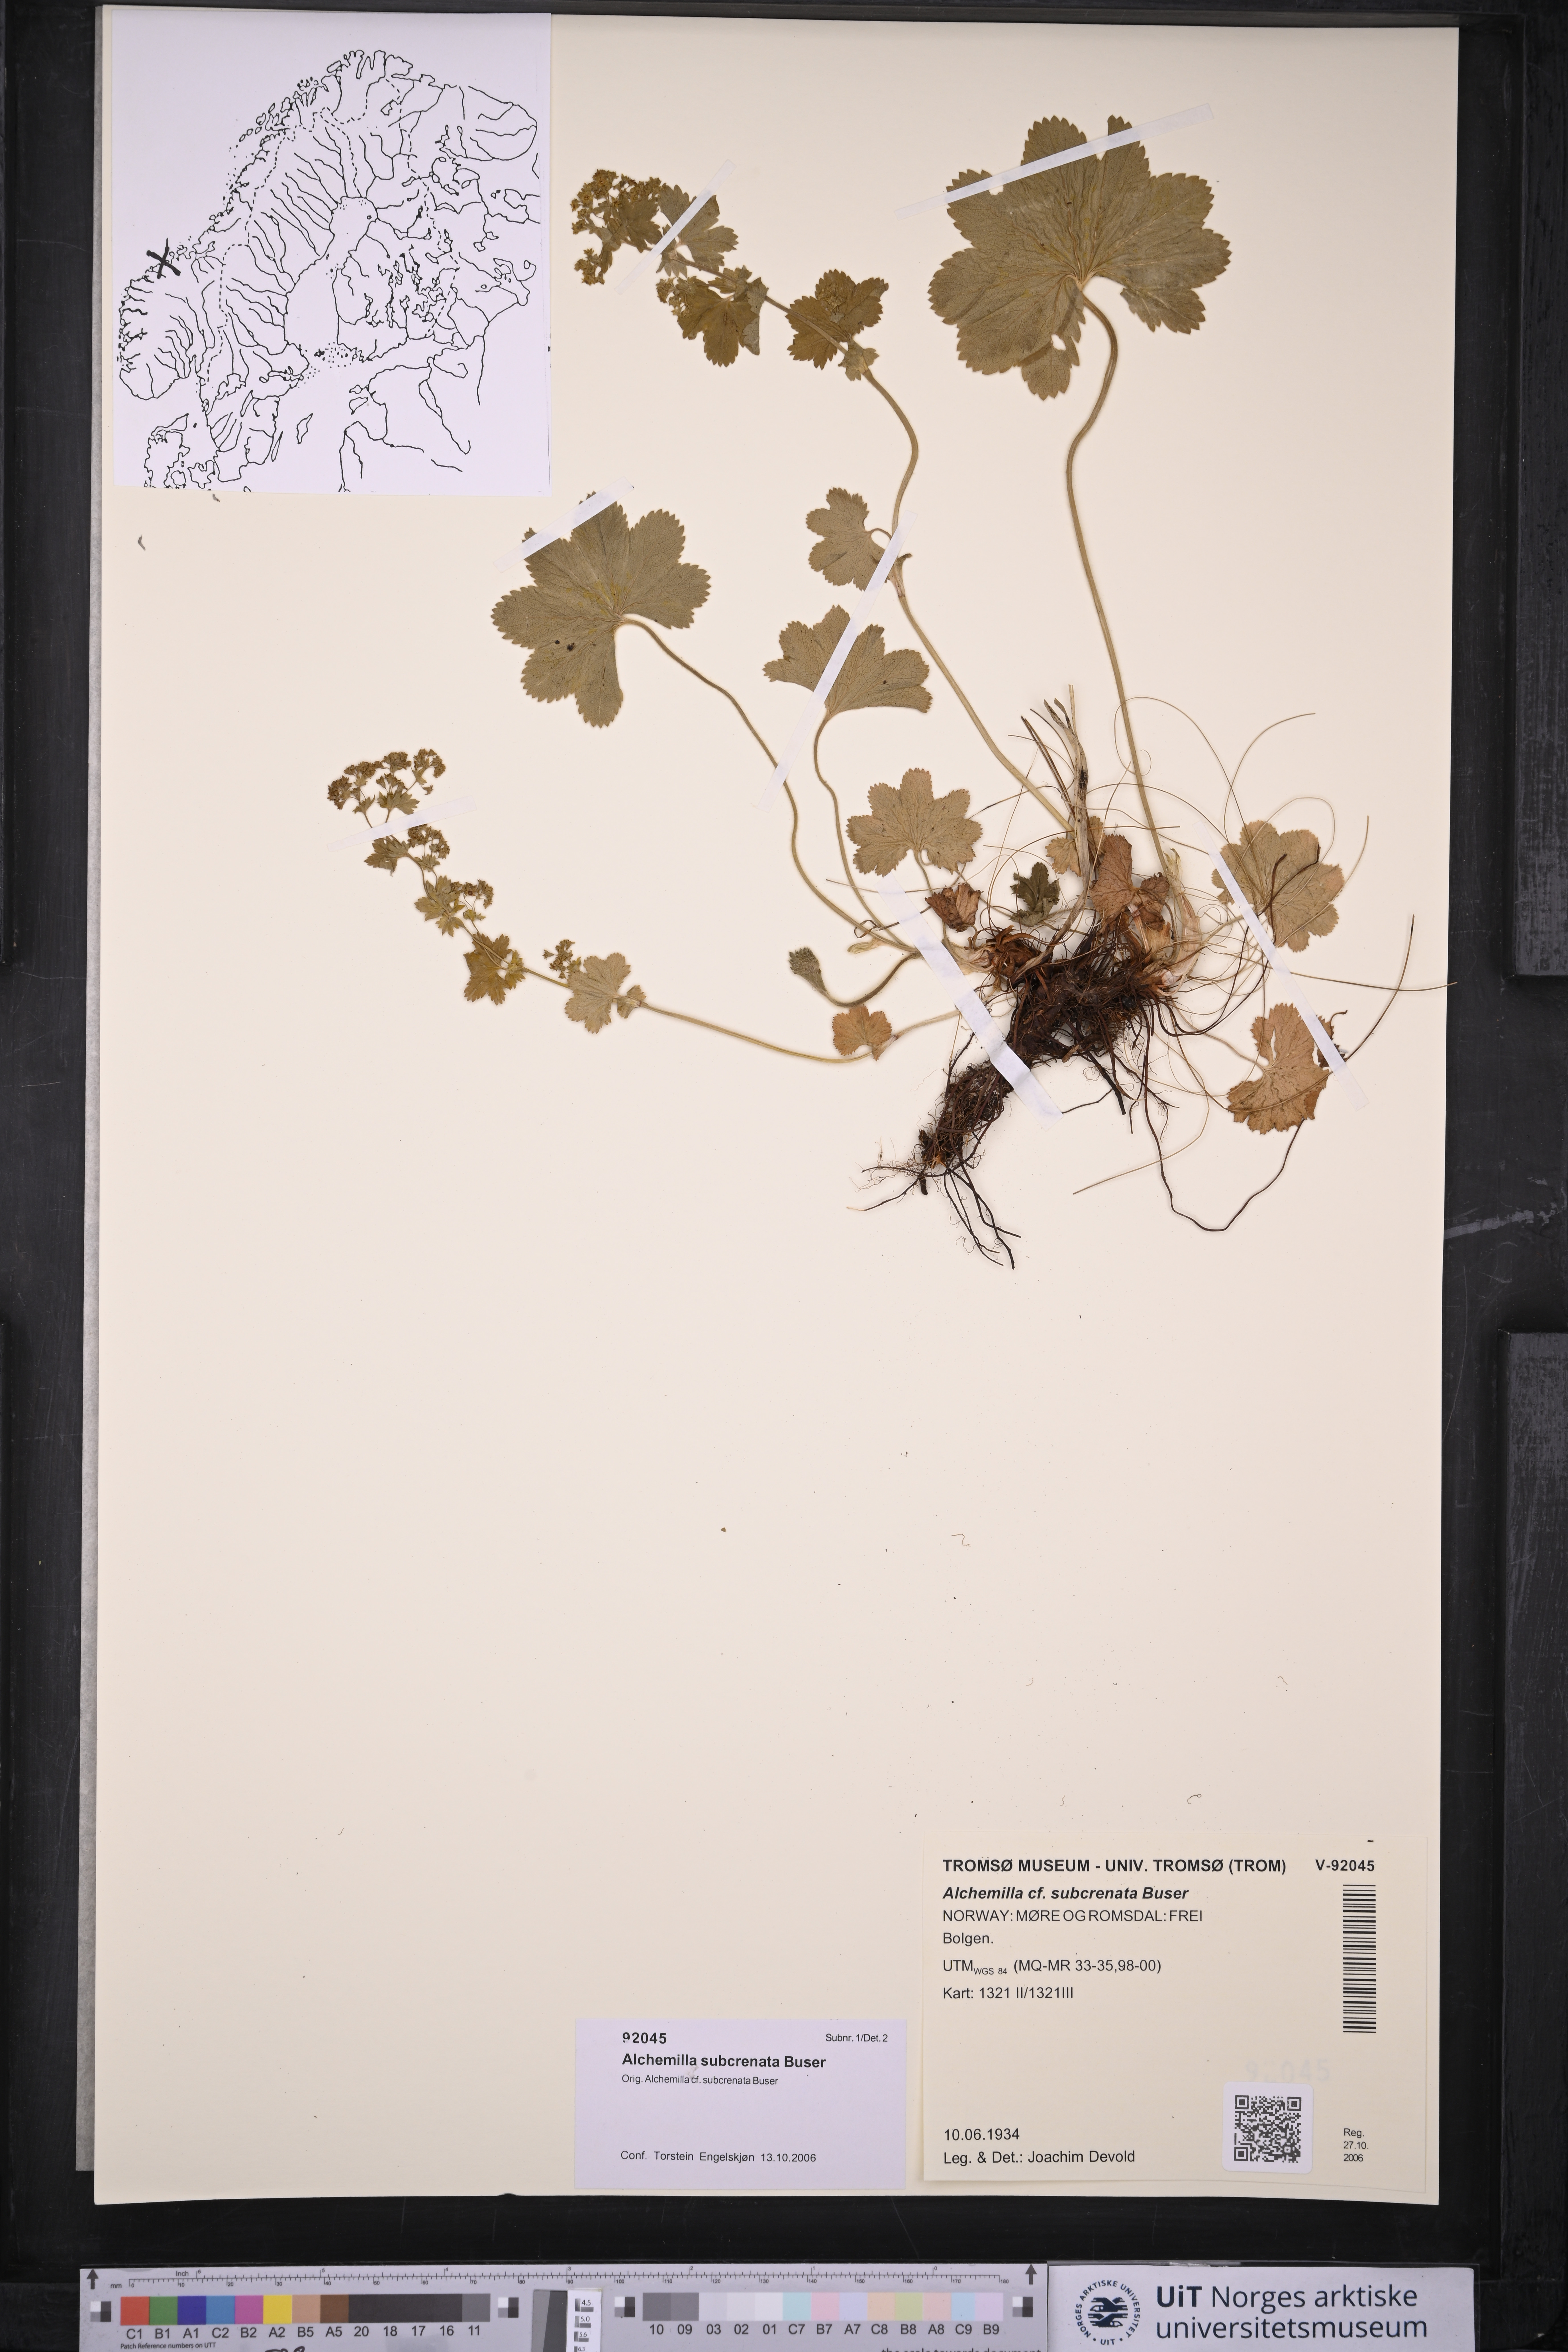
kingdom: Plantae
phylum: Tracheophyta
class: Magnoliopsida
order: Rosales
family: Rosaceae
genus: Alchemilla
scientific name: Alchemilla subcrenata
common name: Broadtooth lady's mantle
